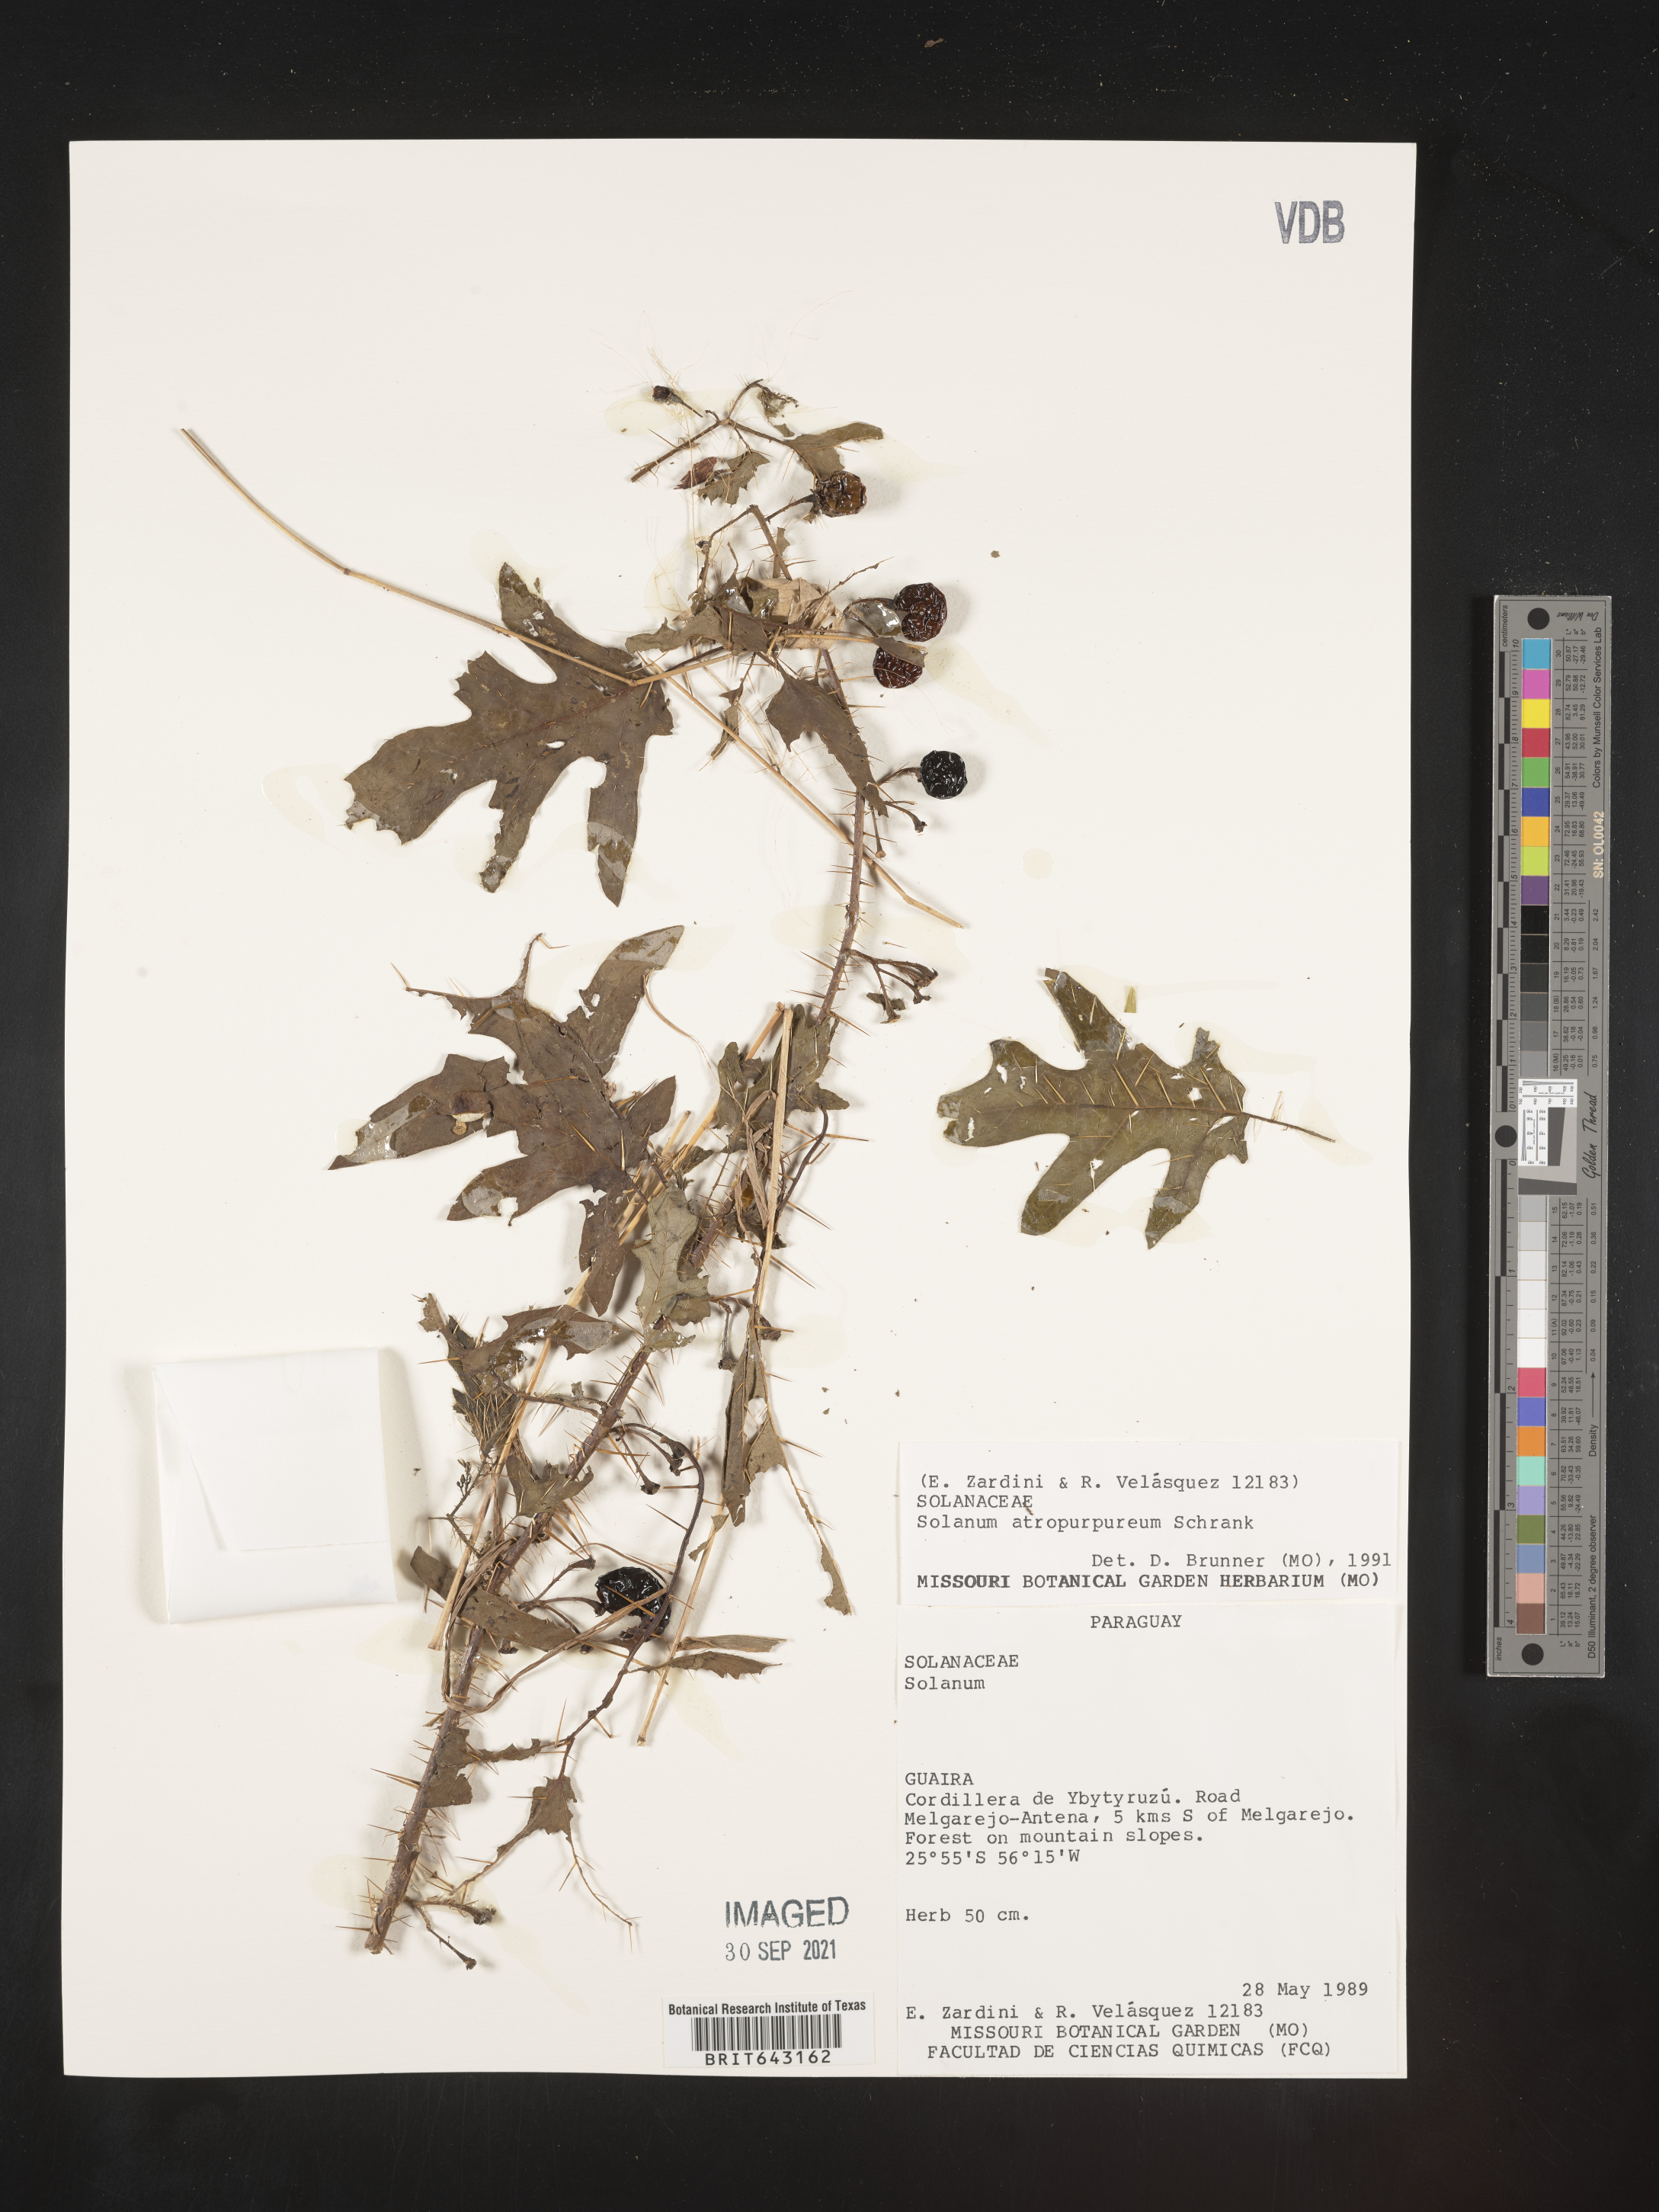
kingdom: Plantae
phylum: Tracheophyta
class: Magnoliopsida
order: Solanales
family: Solanaceae
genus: Solanum
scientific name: Solanum
